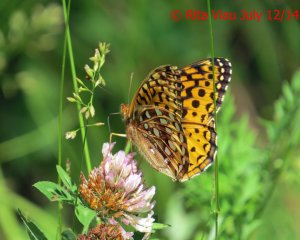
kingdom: Animalia
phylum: Arthropoda
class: Insecta
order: Lepidoptera
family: Nymphalidae
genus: Speyeria
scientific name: Speyeria cybele
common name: Great Spangled Fritillary
